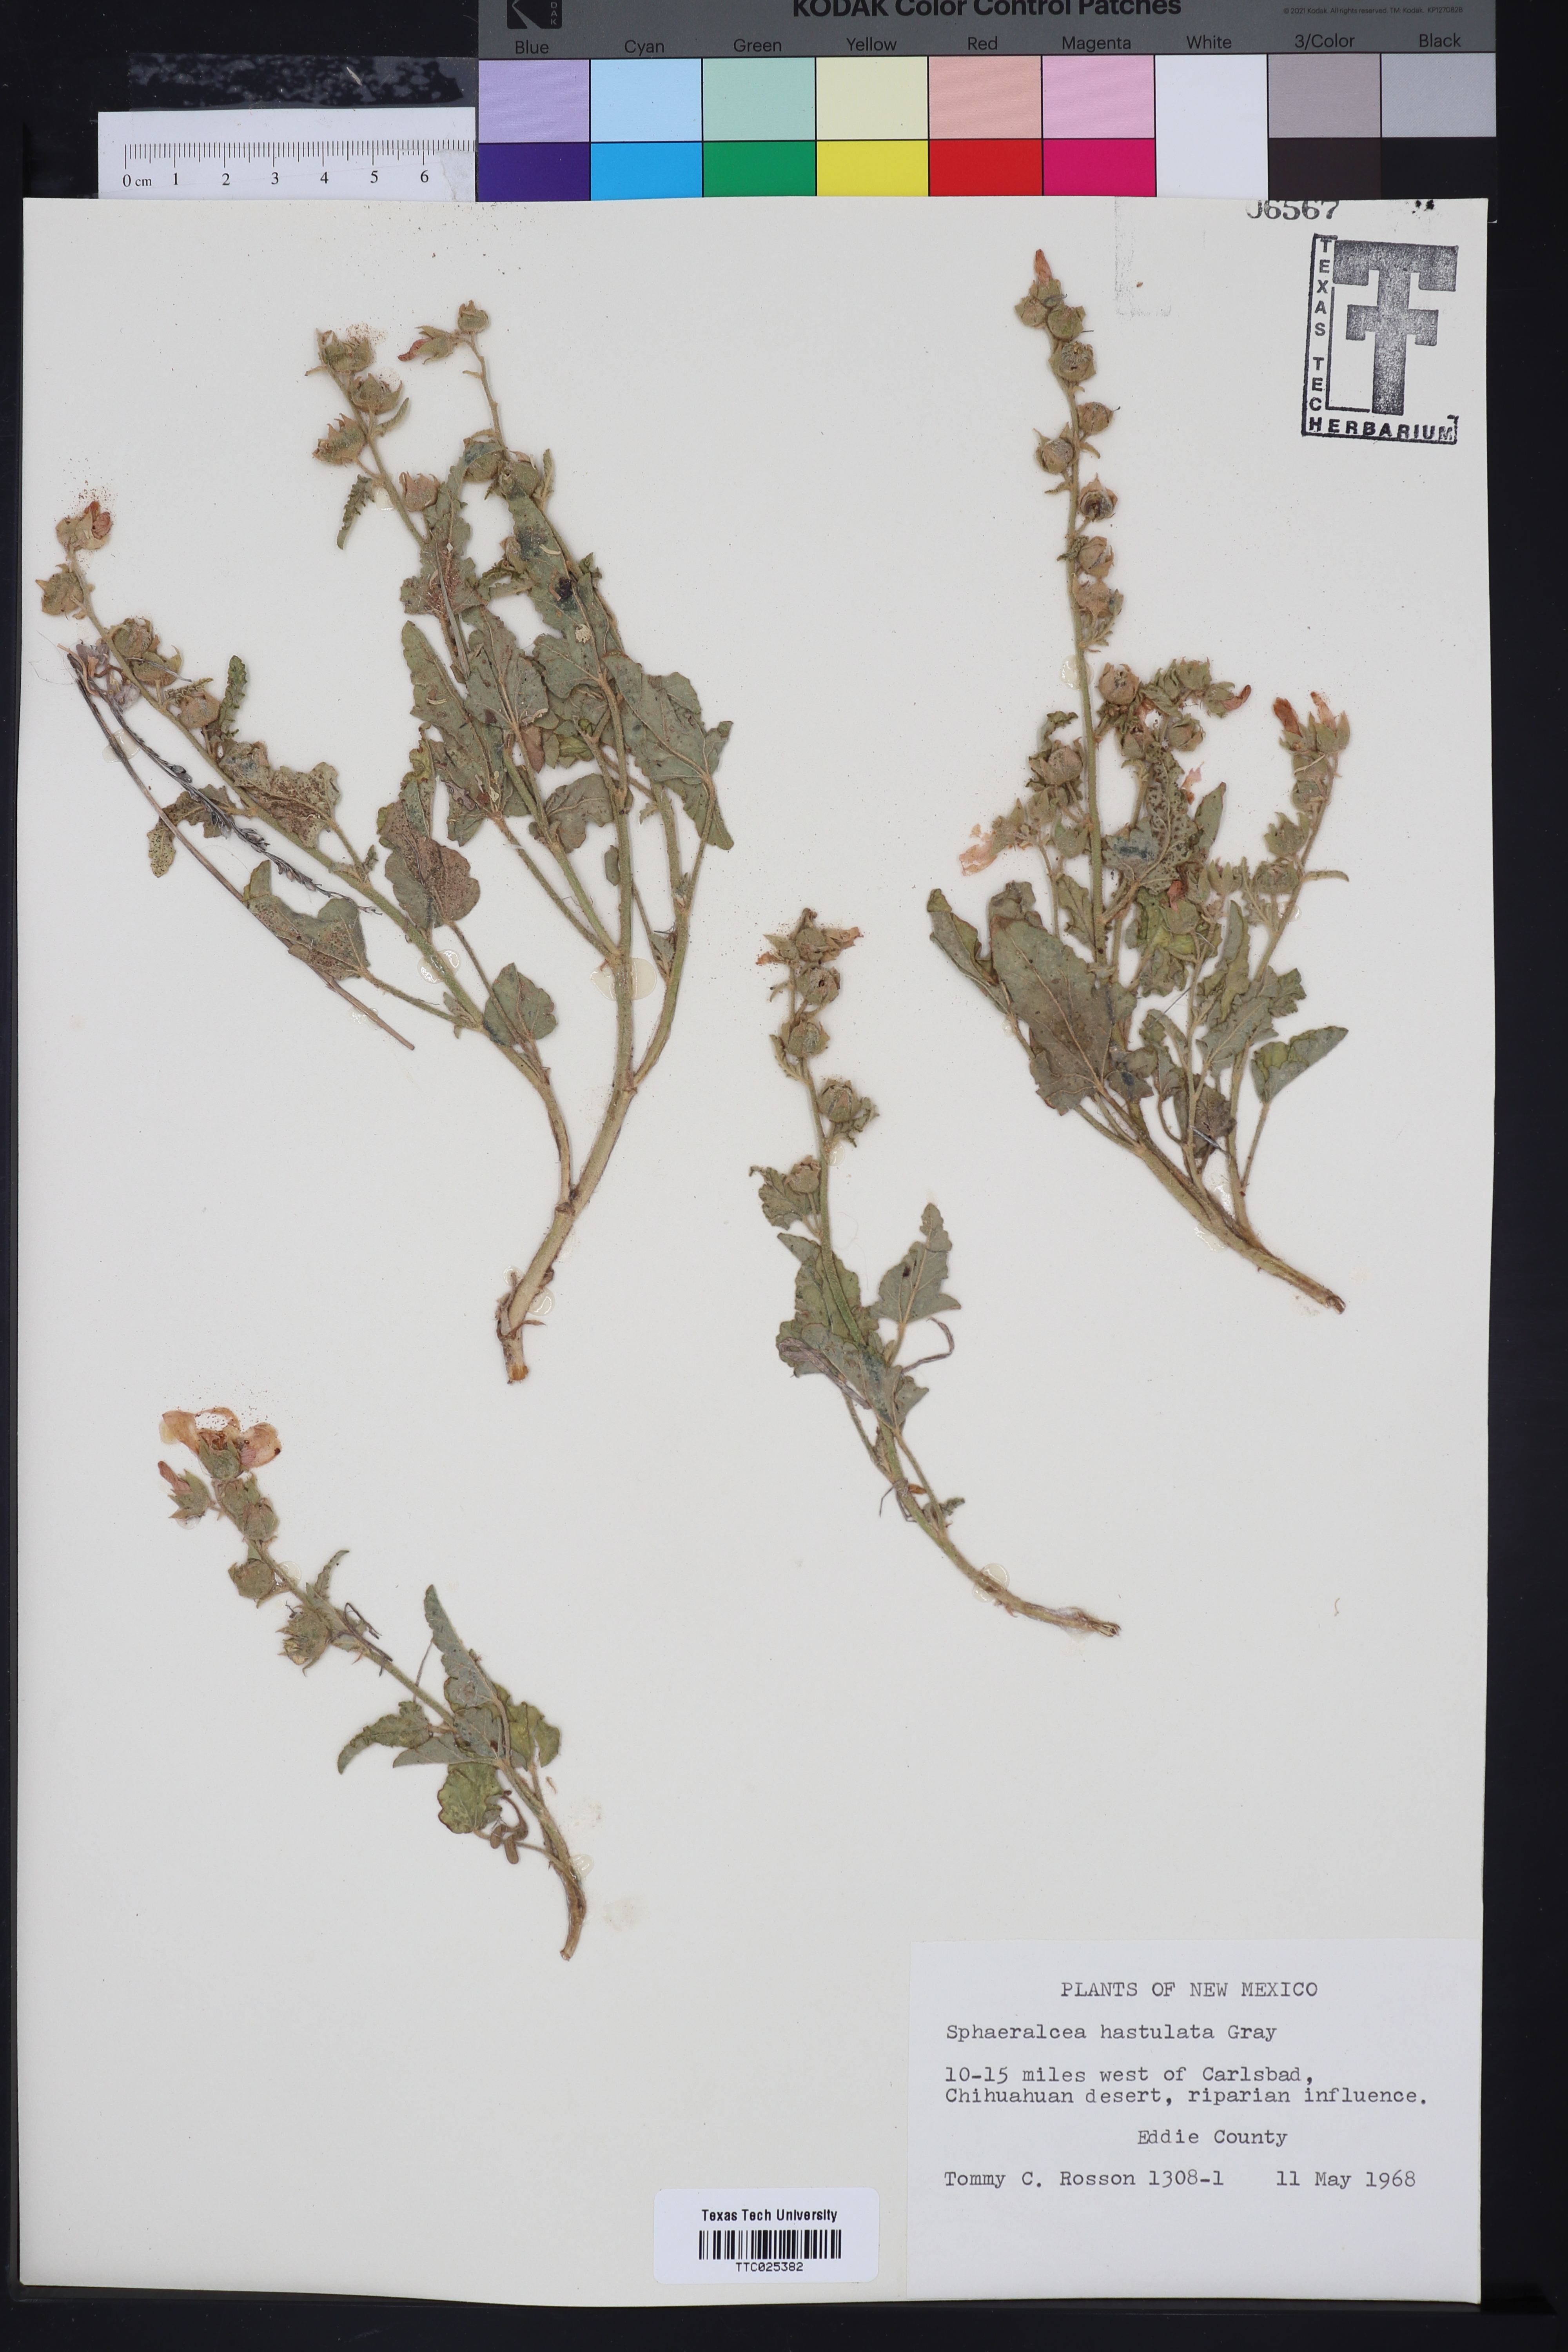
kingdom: Plantae
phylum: Tracheophyta
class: Magnoliopsida
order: Malvales
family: Malvaceae
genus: Sphaeralcea
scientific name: Sphaeralcea hastulata
